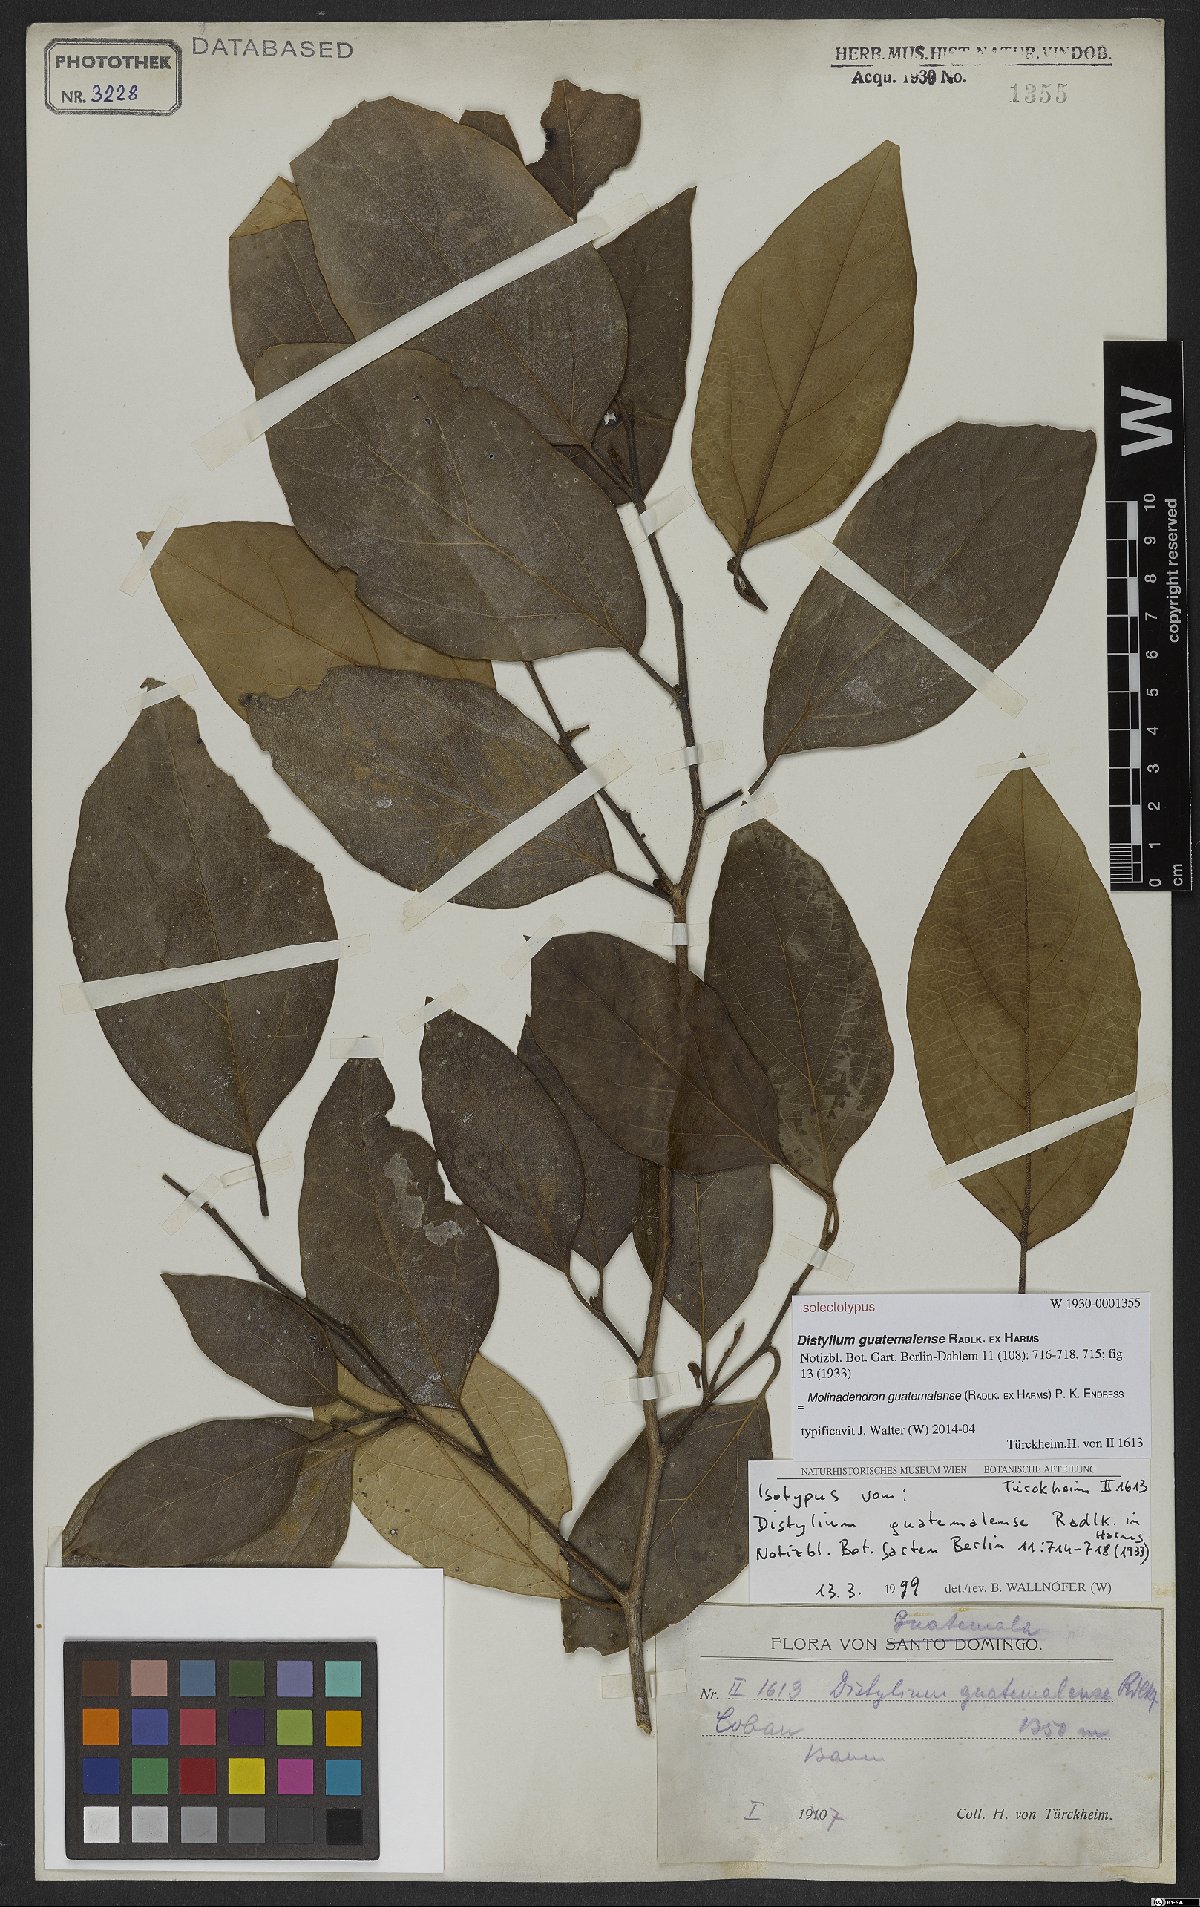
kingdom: Plantae
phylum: Tracheophyta
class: Magnoliopsida
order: Saxifragales
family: Hamamelidaceae
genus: Molinadendron
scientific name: Molinadendron guatemalense
